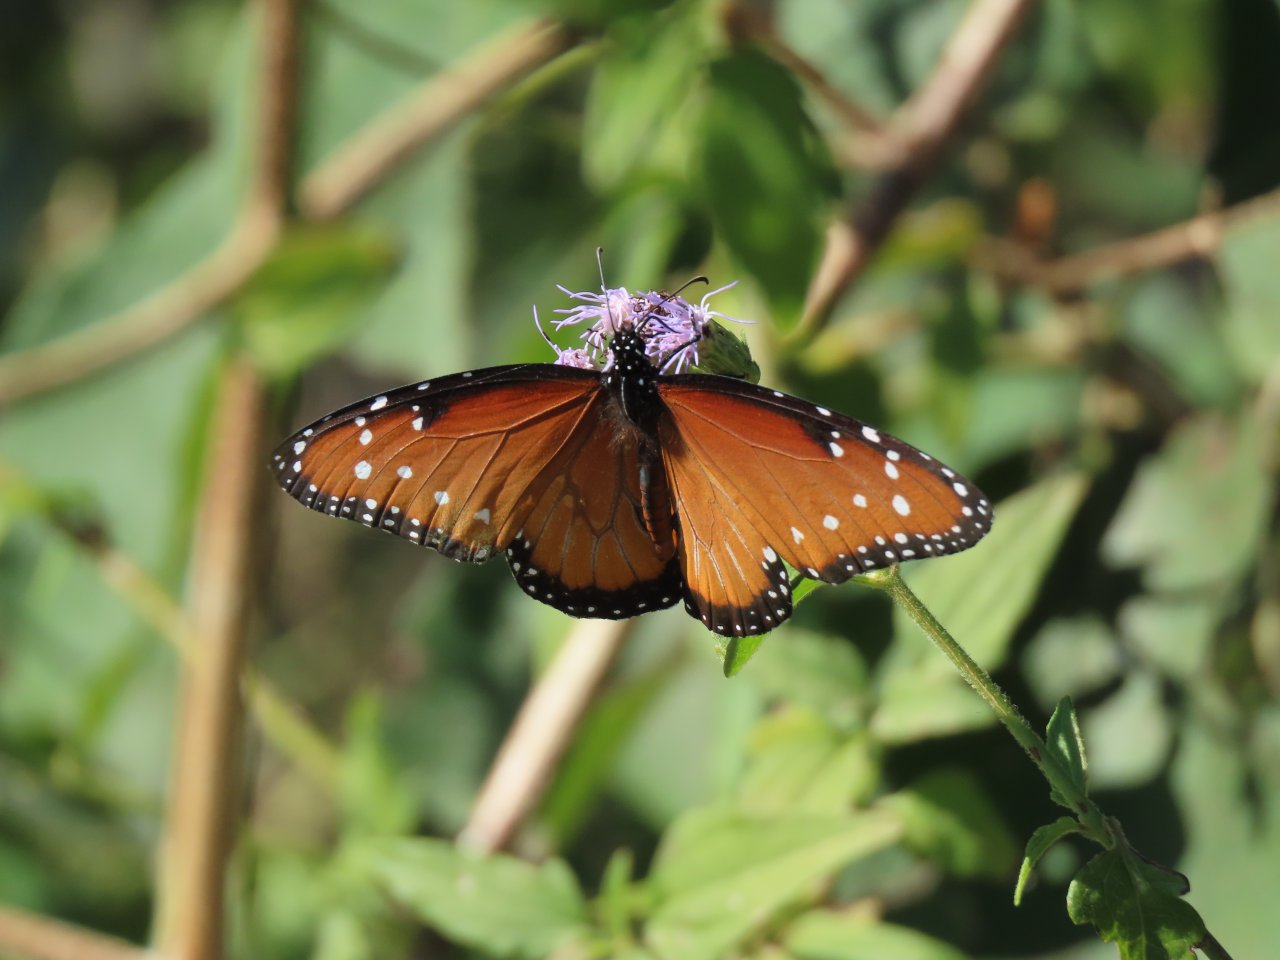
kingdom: Animalia
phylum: Arthropoda
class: Insecta
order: Lepidoptera
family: Nymphalidae
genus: Danaus
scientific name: Danaus gilippus
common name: Queen
